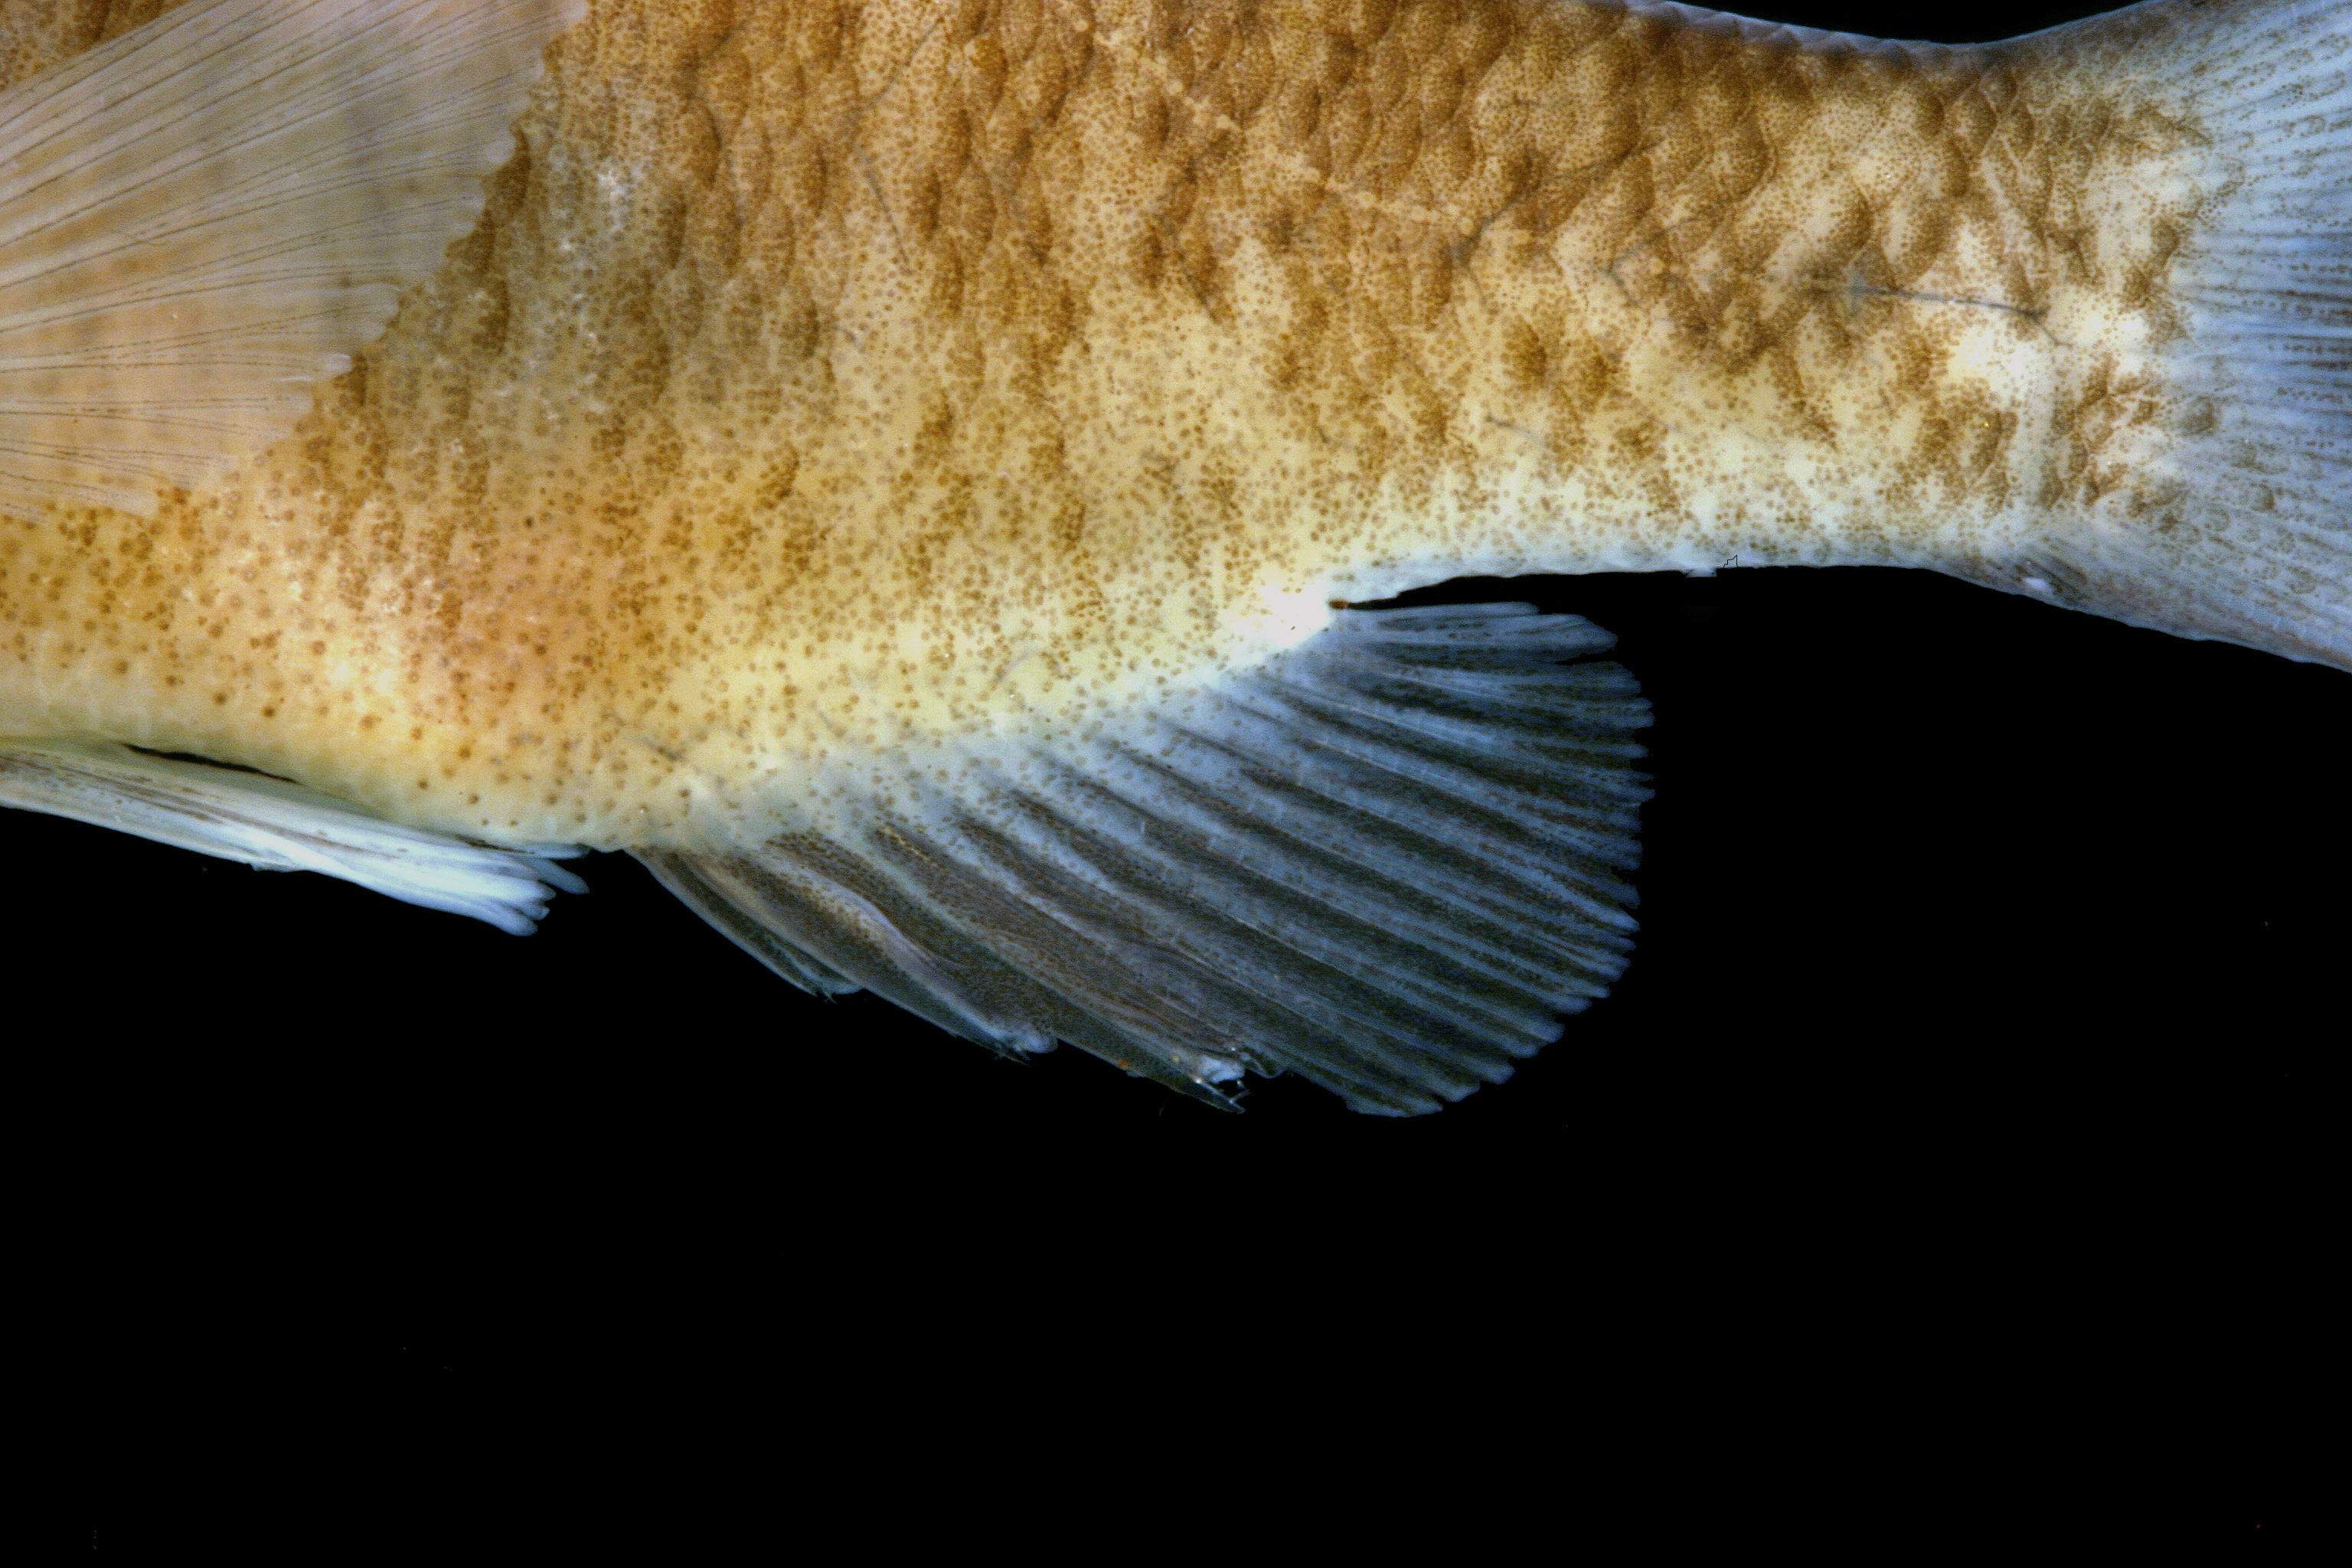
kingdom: Animalia
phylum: Chordata
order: Perciformes
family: Centrarchidae
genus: Lepomis
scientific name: Lepomis macrochirus
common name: Bluegill
